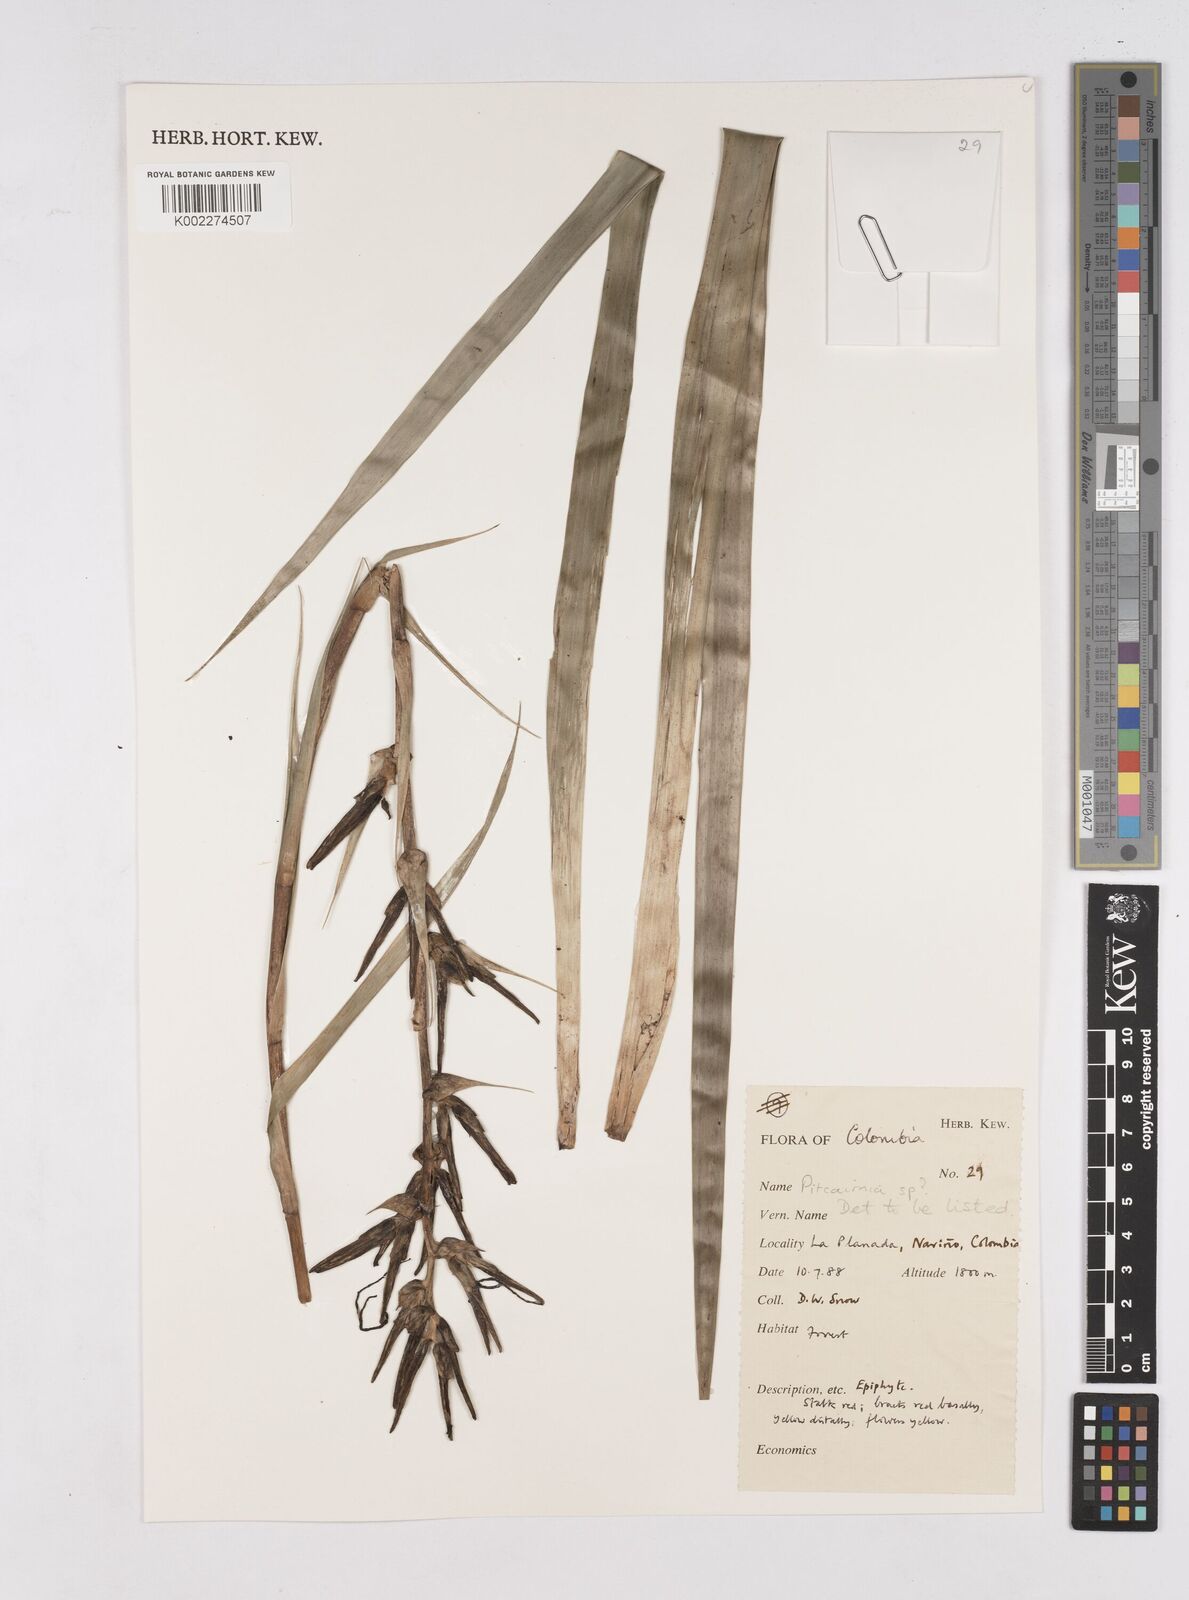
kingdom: Plantae
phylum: Tracheophyta
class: Liliopsida
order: Poales
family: Bromeliaceae
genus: Pitcairnia
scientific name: Pitcairnia
